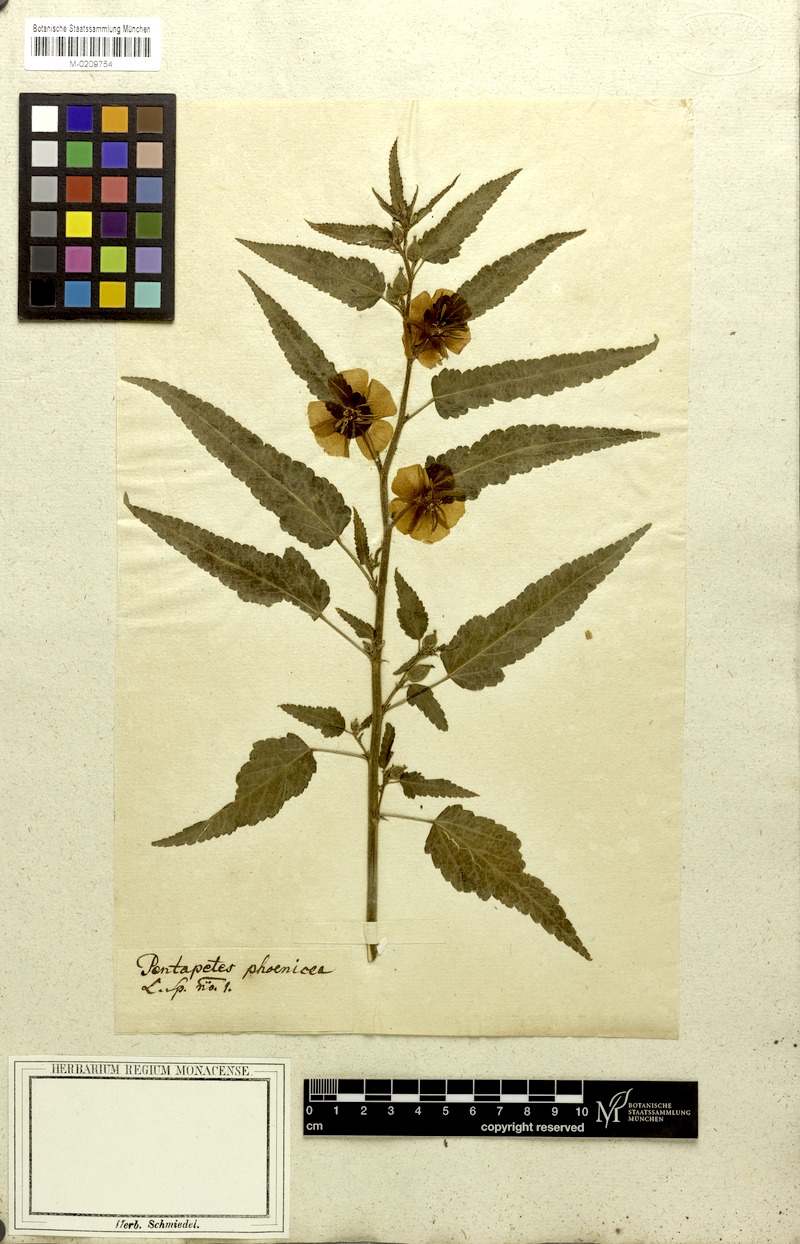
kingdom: Plantae
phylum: Tracheophyta
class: Magnoliopsida
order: Malvales
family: Malvaceae
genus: Pentapetes
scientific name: Pentapetes phoenicea
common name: Copper-cups
